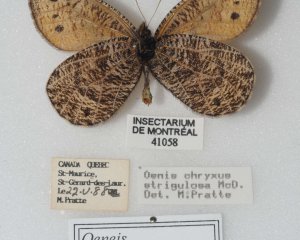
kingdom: Animalia
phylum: Arthropoda
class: Insecta
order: Lepidoptera
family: Nymphalidae
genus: Oeneis
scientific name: Oeneis chryxus
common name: Chryxus Arctic
